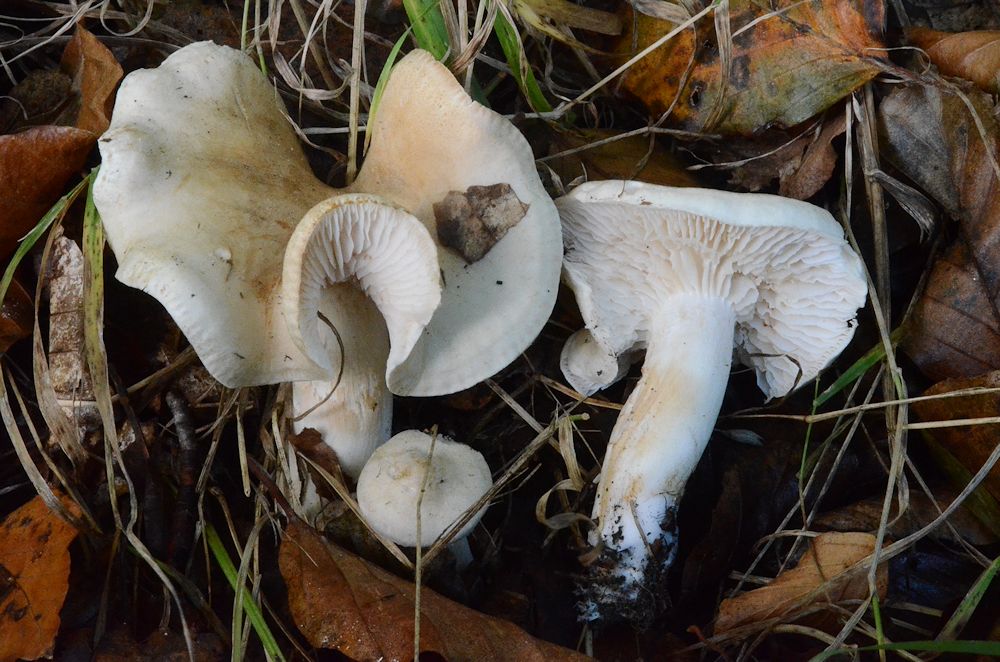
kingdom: Fungi
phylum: Basidiomycota
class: Agaricomycetes
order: Agaricales
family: Tricholomataceae
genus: Tricholoma
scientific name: Tricholoma lascivum
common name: stinkende ridderhat
